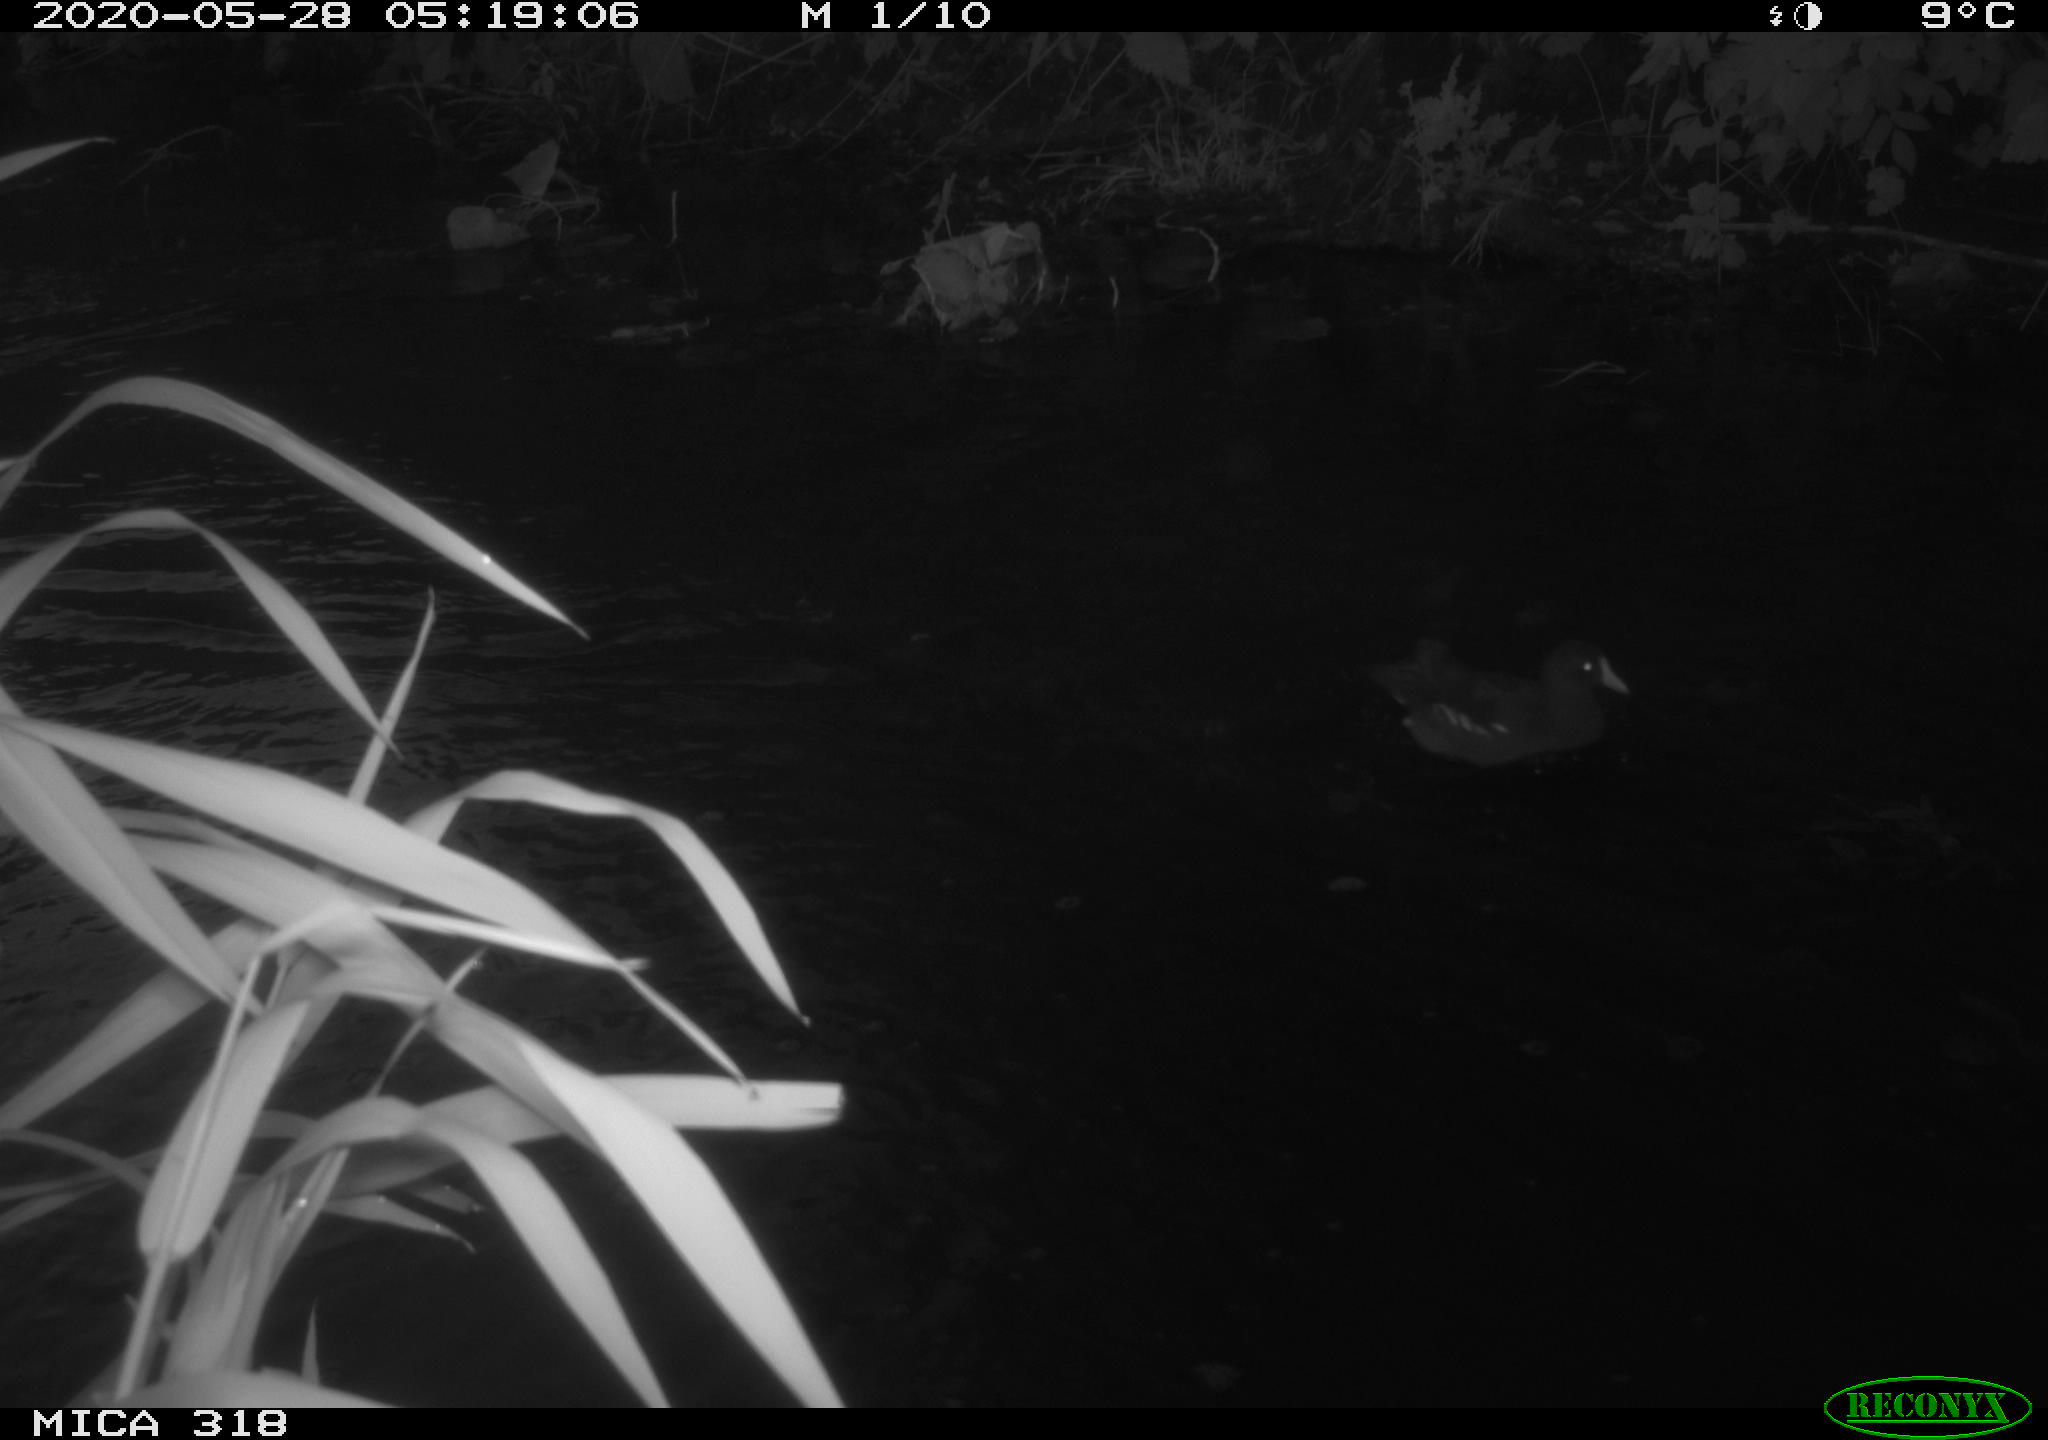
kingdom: Animalia
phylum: Chordata
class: Aves
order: Gruiformes
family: Rallidae
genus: Gallinula
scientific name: Gallinula chloropus
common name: Common moorhen
